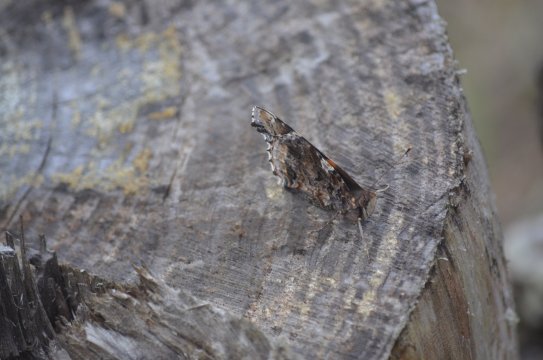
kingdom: Animalia
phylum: Arthropoda
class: Insecta
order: Lepidoptera
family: Nymphalidae
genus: Vanessa
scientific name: Vanessa atalanta
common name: Red Admiral
